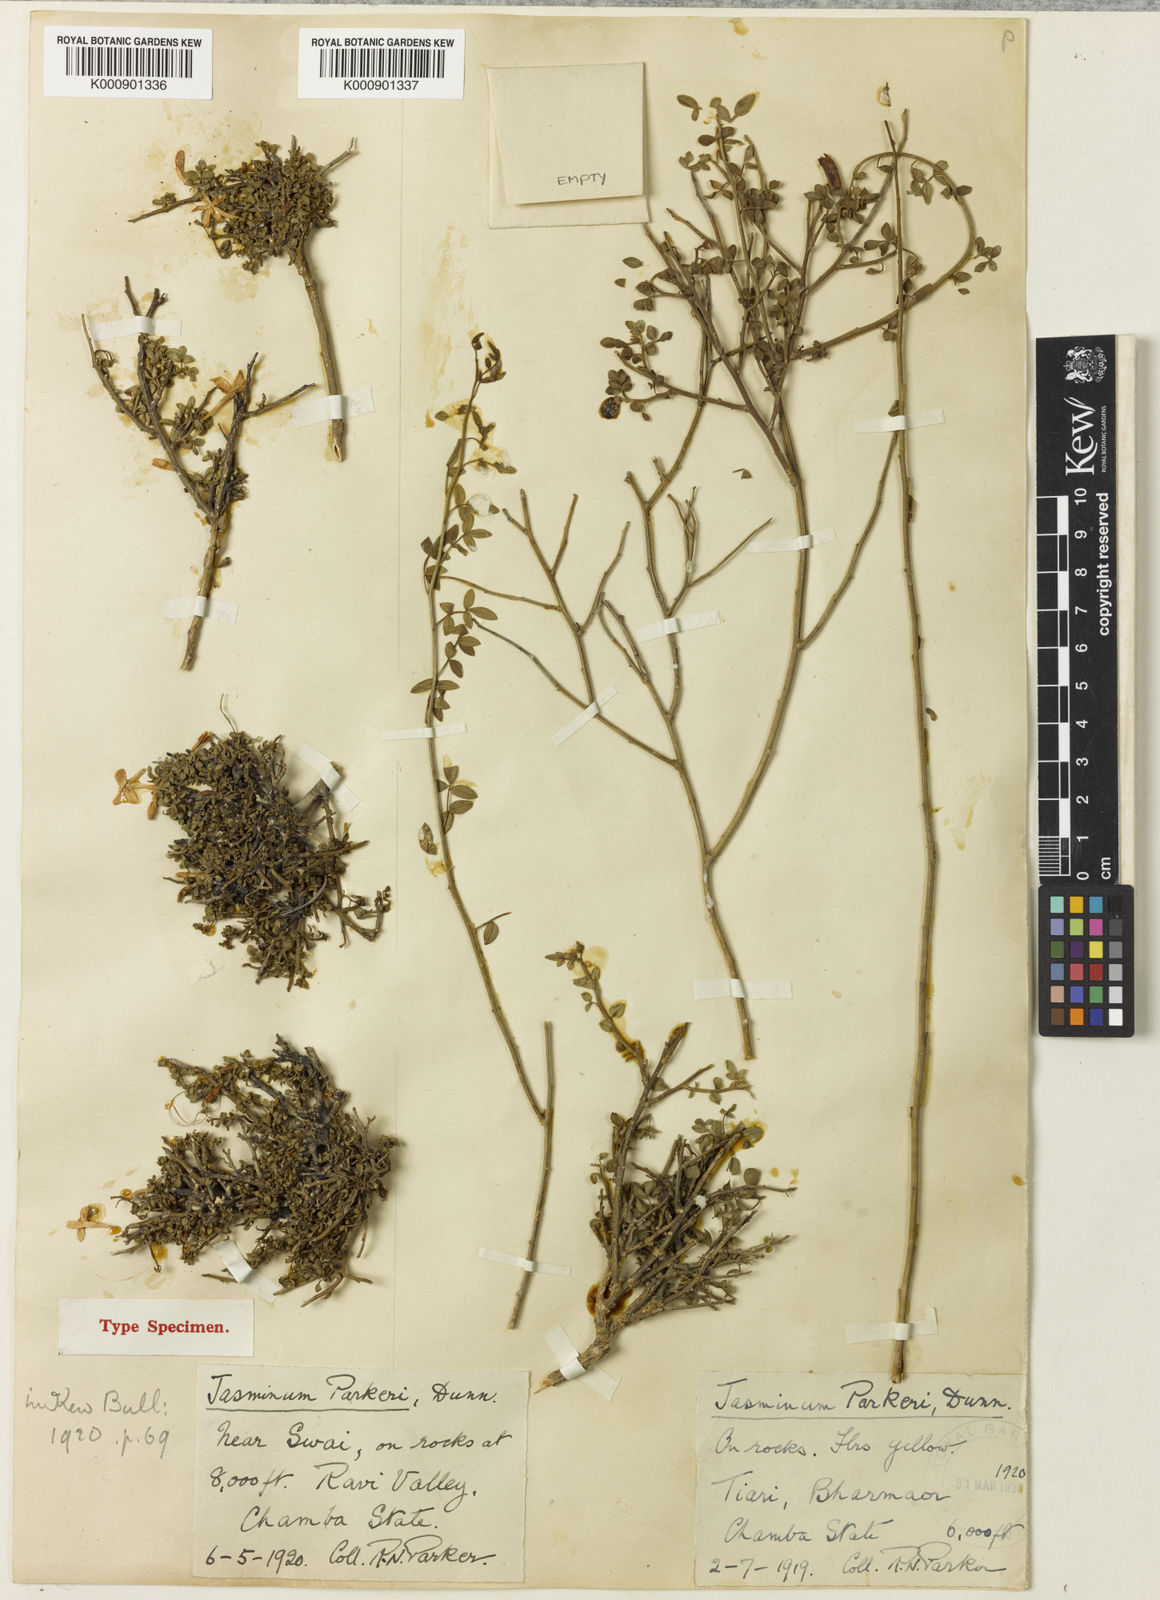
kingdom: Plantae
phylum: Tracheophyta
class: Magnoliopsida
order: Lamiales
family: Oleaceae
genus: Chrysojasminum
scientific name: Chrysojasminum parkeri
